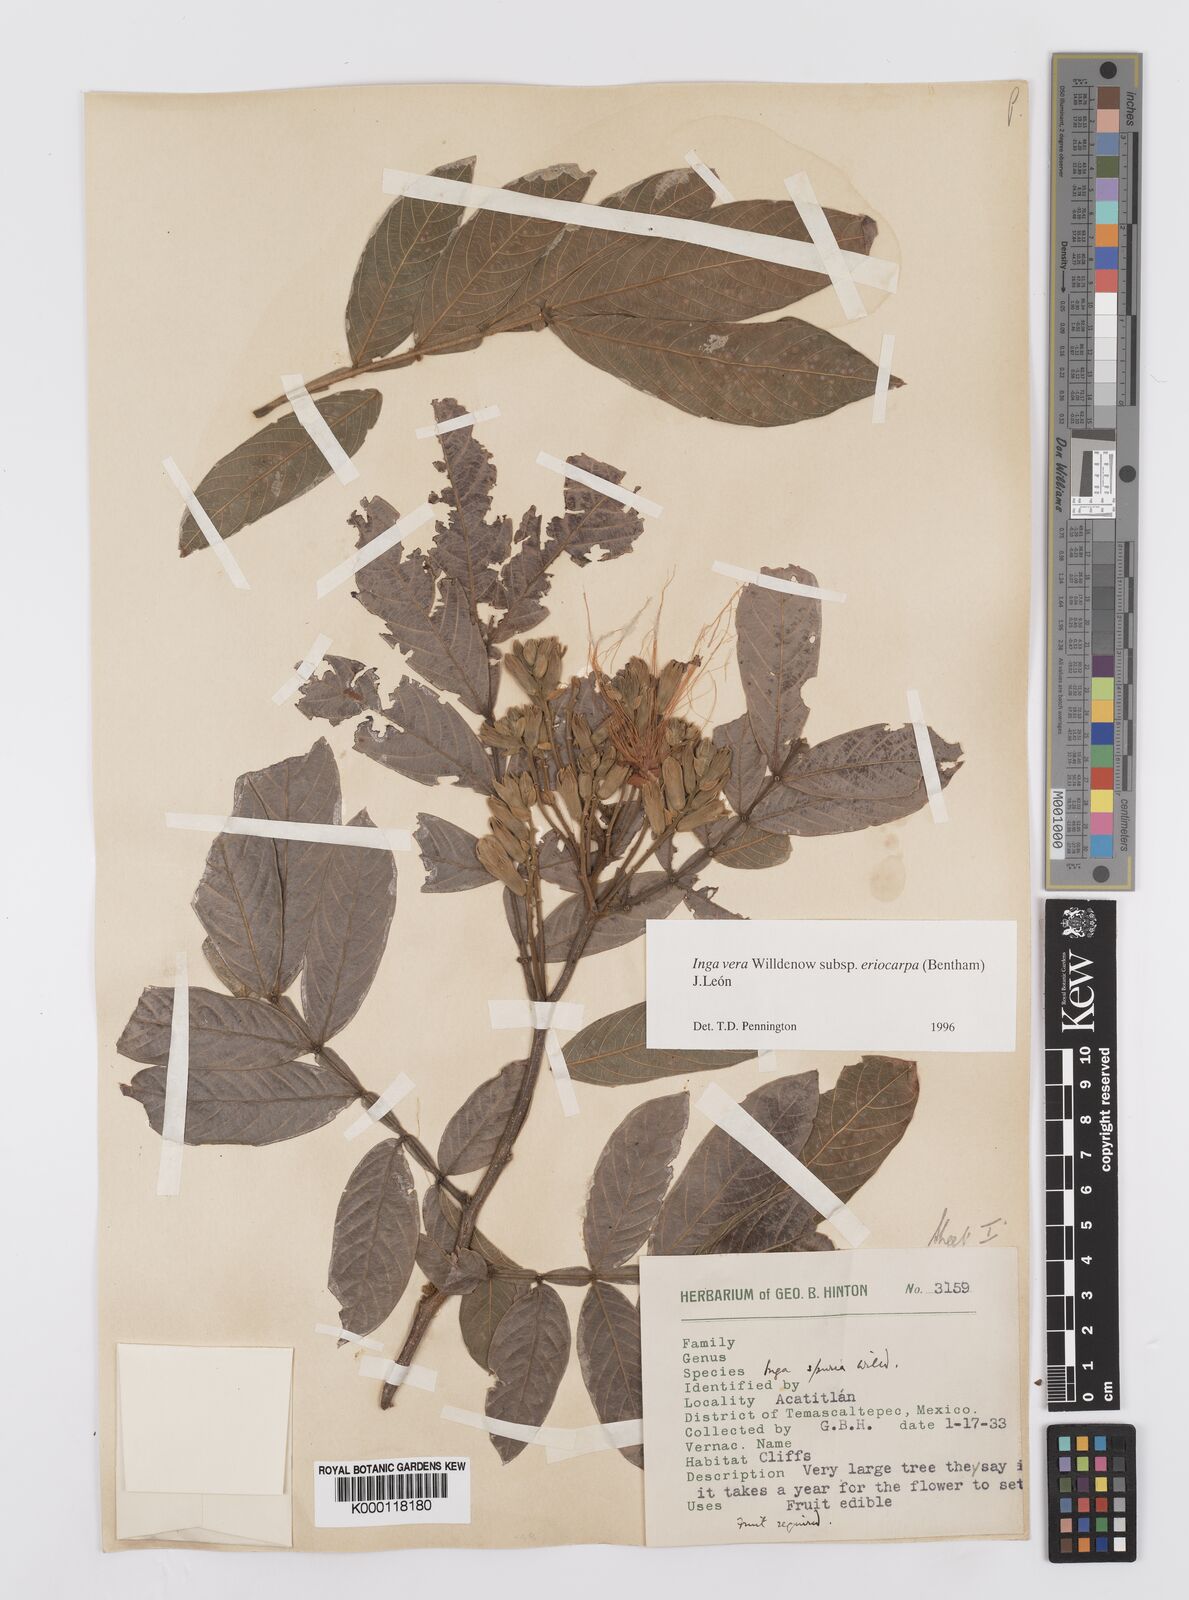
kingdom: Plantae
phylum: Tracheophyta
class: Magnoliopsida
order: Fabales
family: Fabaceae
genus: Inga
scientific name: Inga vera
